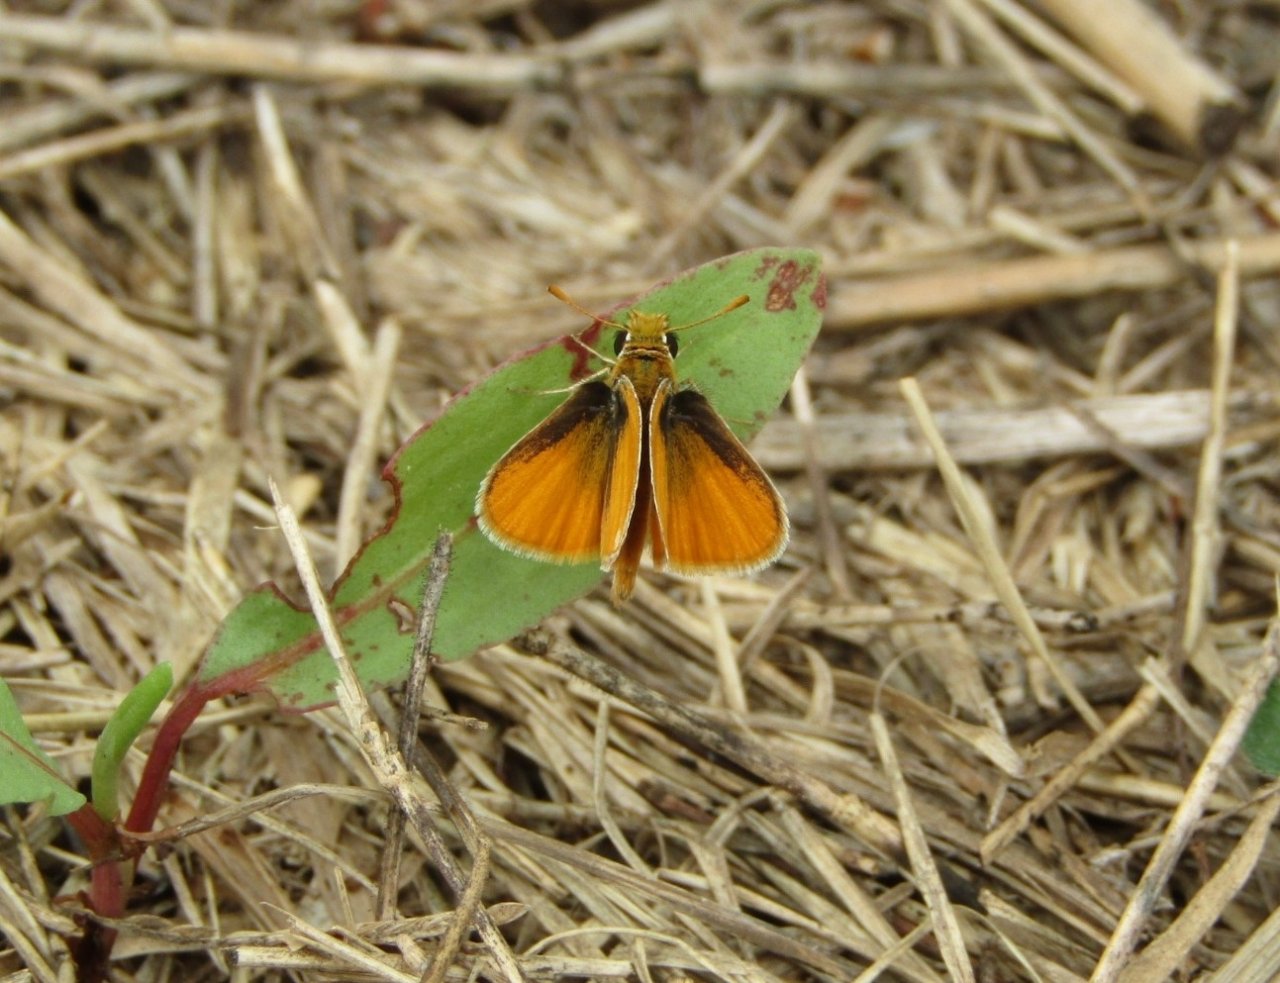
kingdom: Animalia
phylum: Arthropoda
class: Insecta
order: Lepidoptera
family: Hesperiidae
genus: Copaeodes
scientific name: Copaeodes minima
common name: Southern Skipperling
